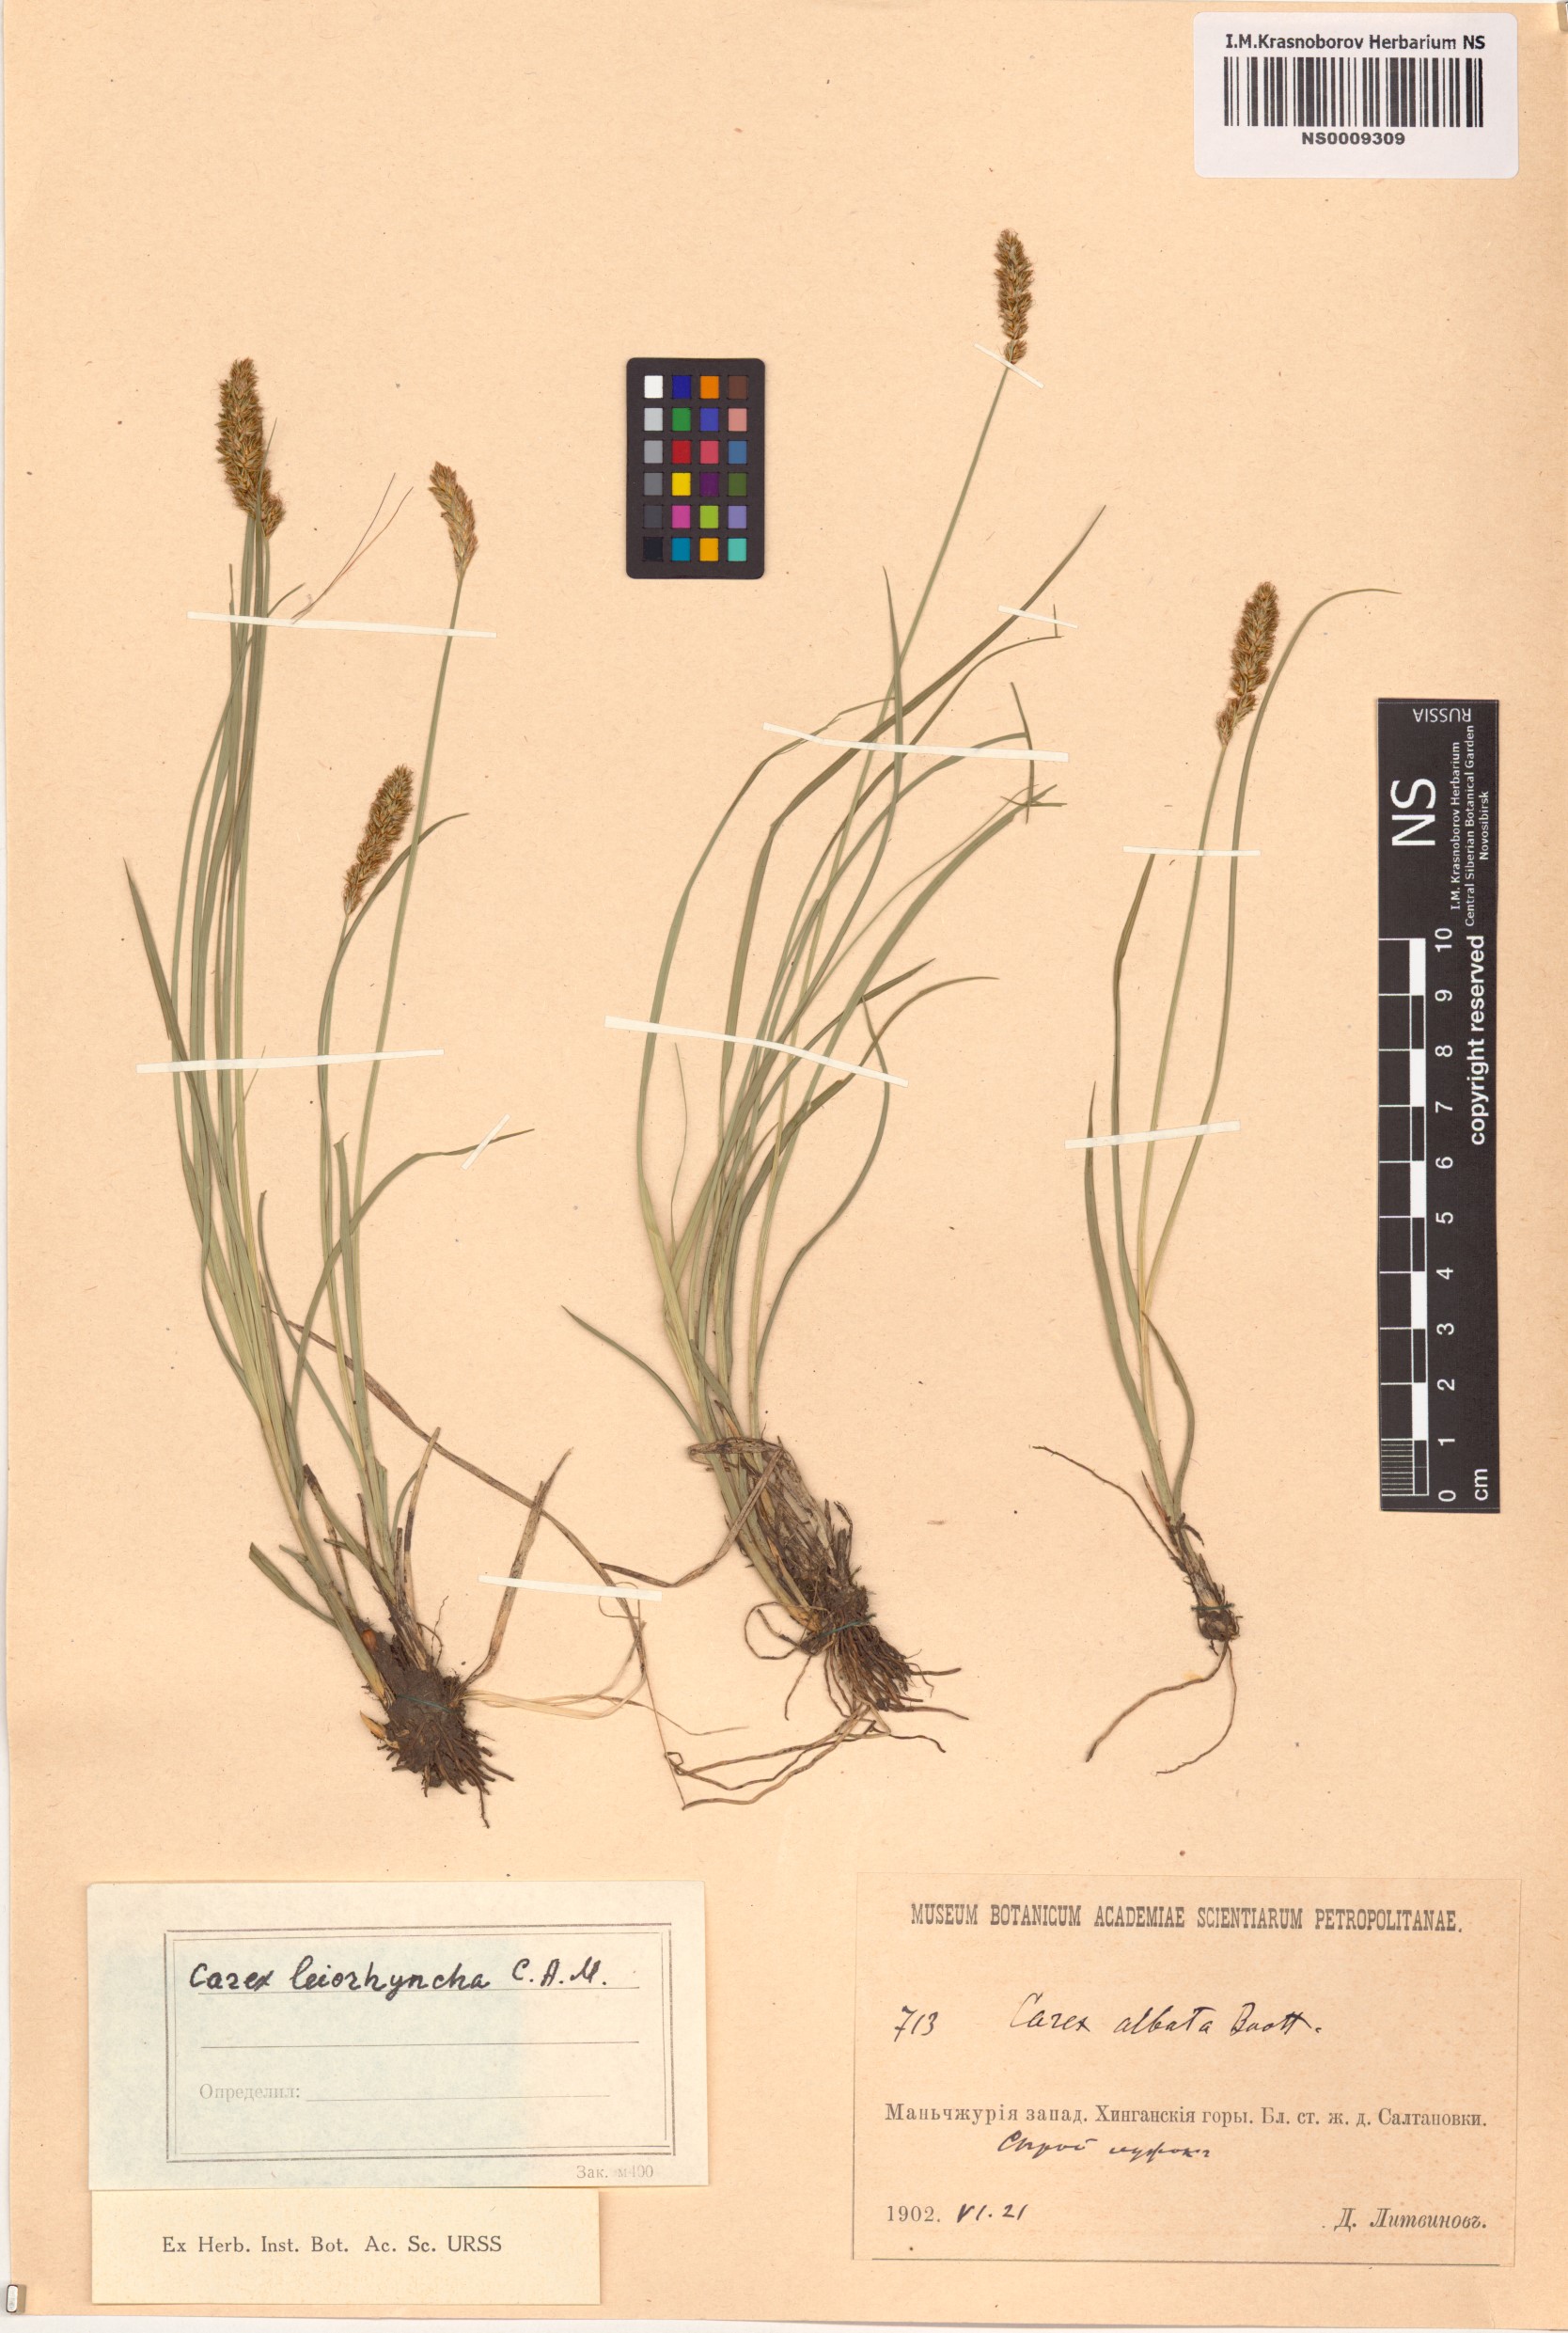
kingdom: Plantae
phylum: Tracheophyta
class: Liliopsida
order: Poales
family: Cyperaceae
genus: Carex
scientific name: Carex leiorhyncha
